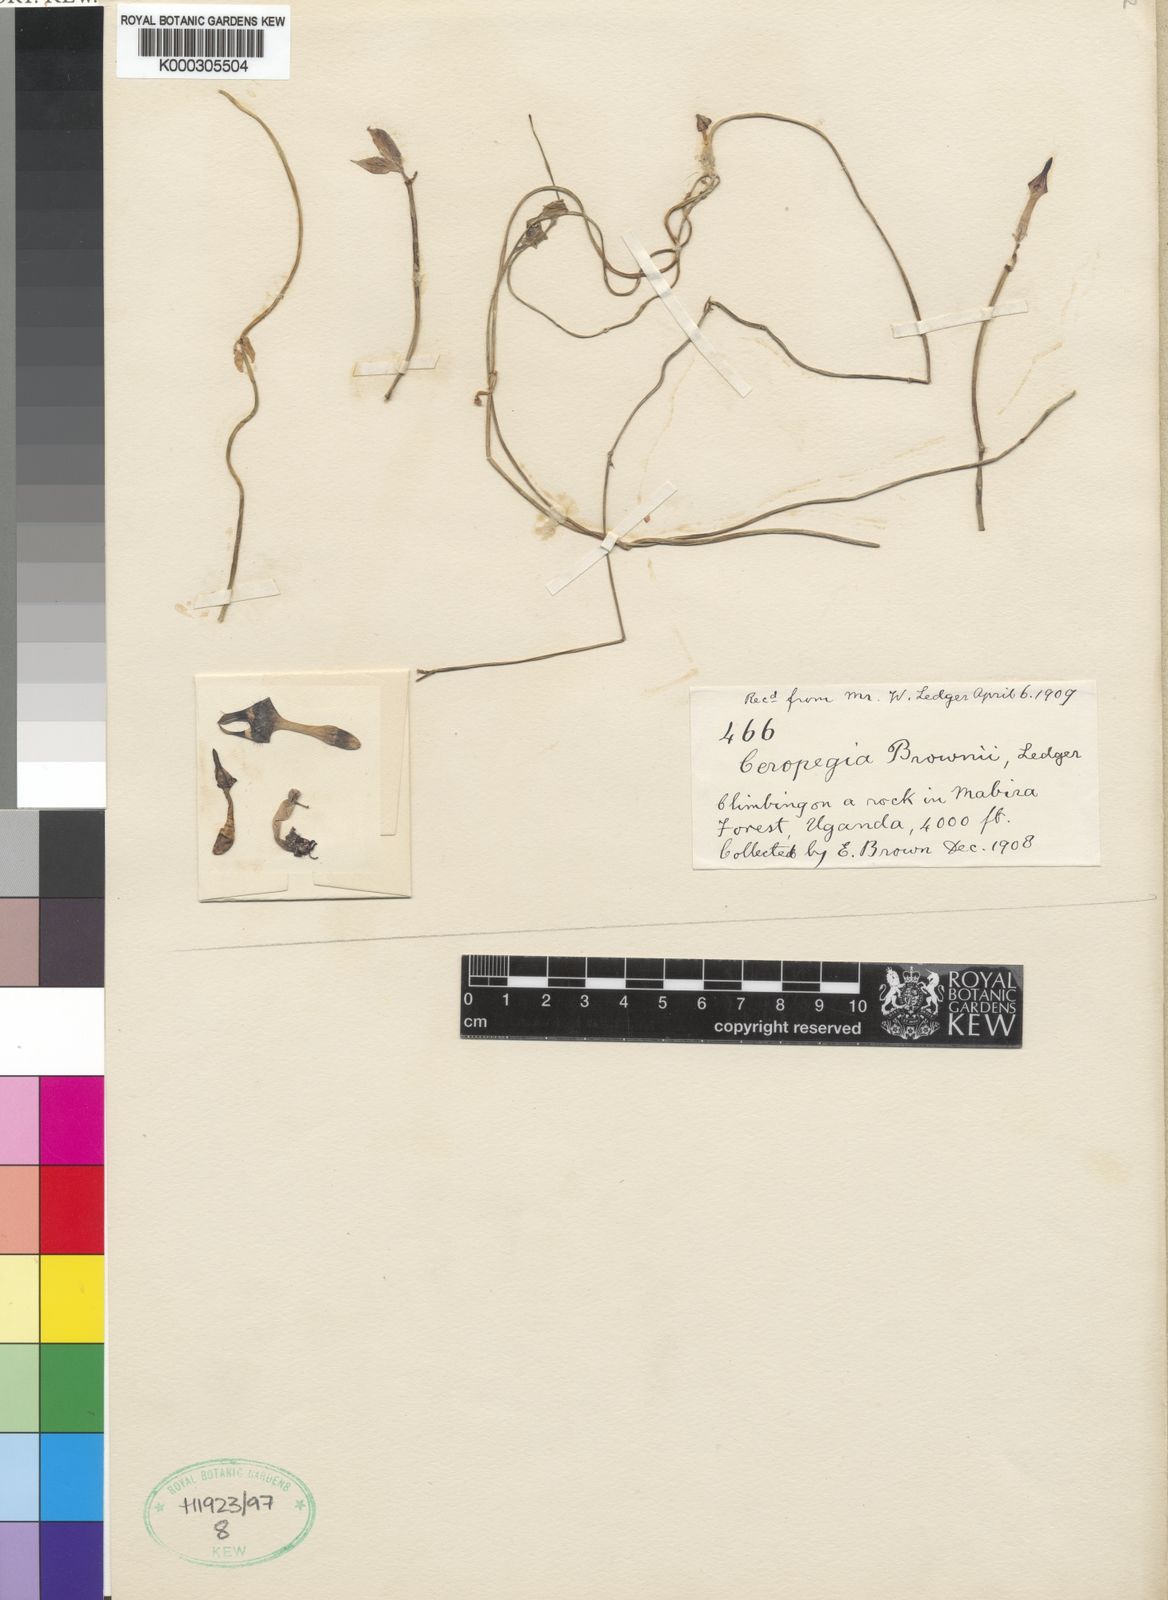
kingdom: Plantae
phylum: Tracheophyta
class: Magnoliopsida
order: Gentianales
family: Apocynaceae
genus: Ceropegia
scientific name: Ceropegia denticulata
